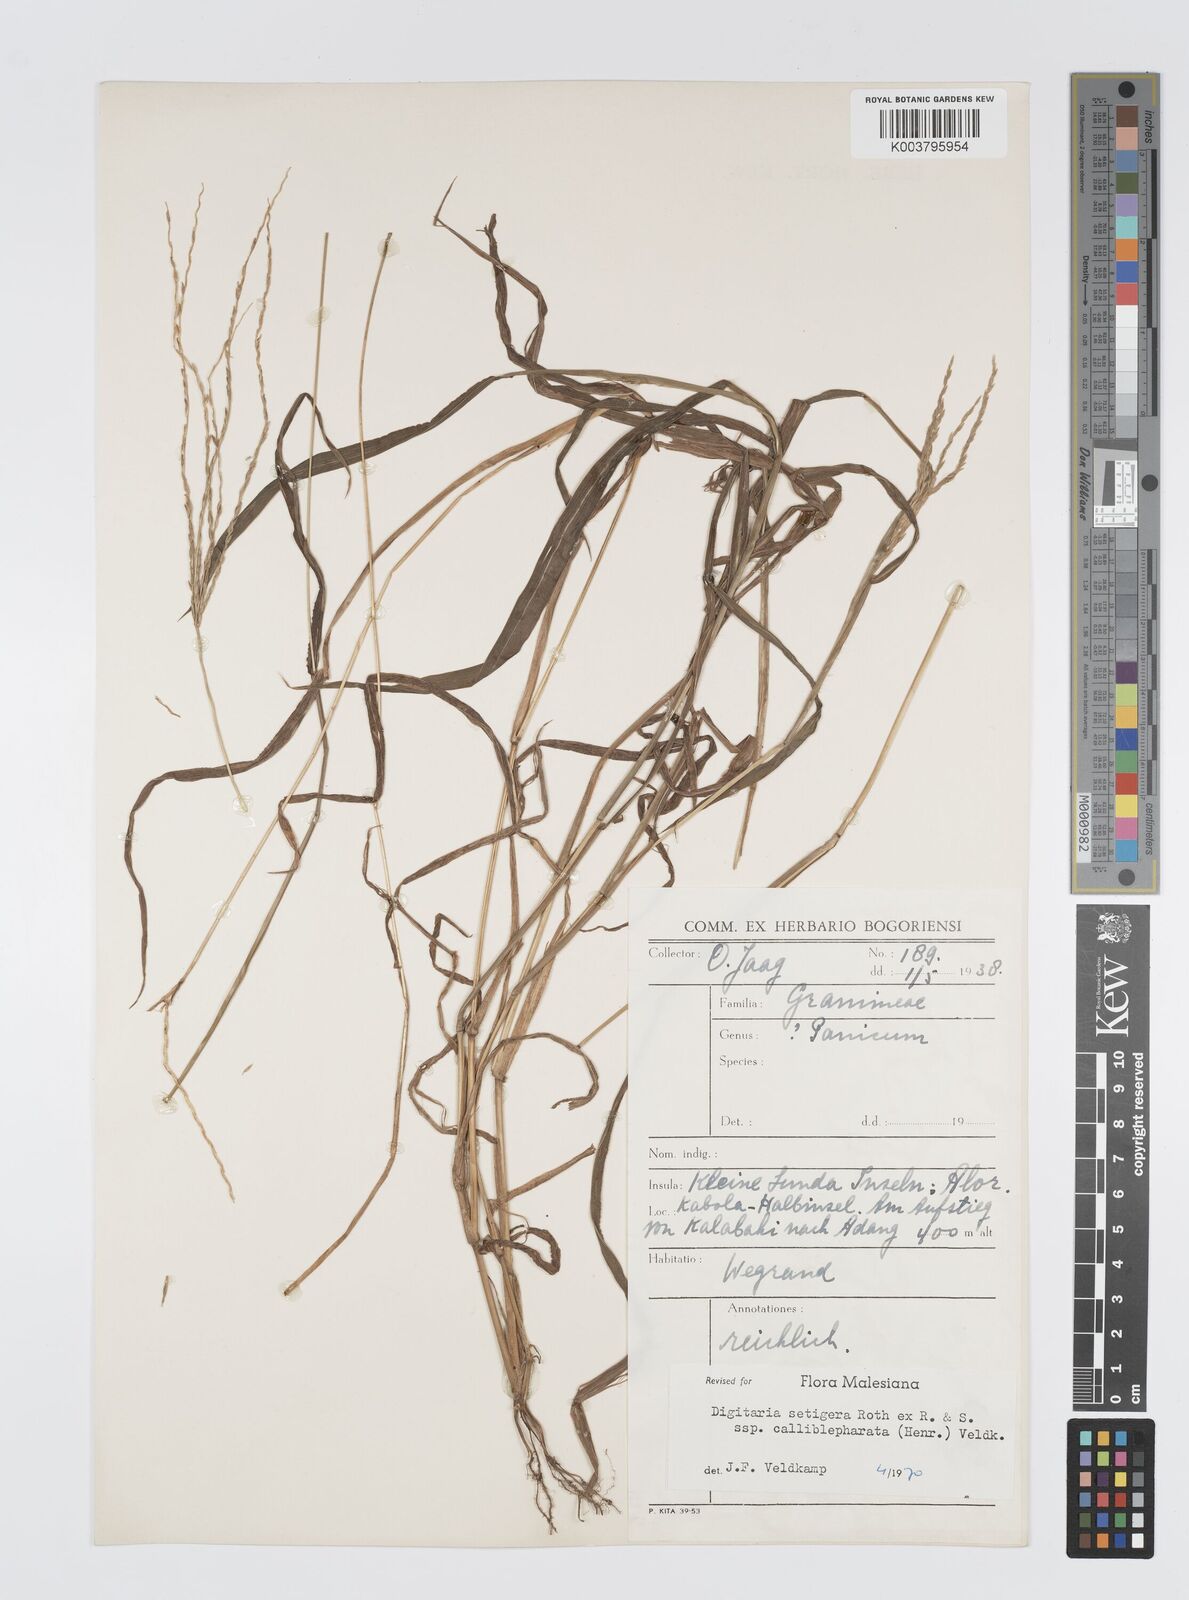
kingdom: Plantae
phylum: Tracheophyta
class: Liliopsida
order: Poales
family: Poaceae
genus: Digitaria
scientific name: Digitaria setigera
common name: East indian crabgrass
